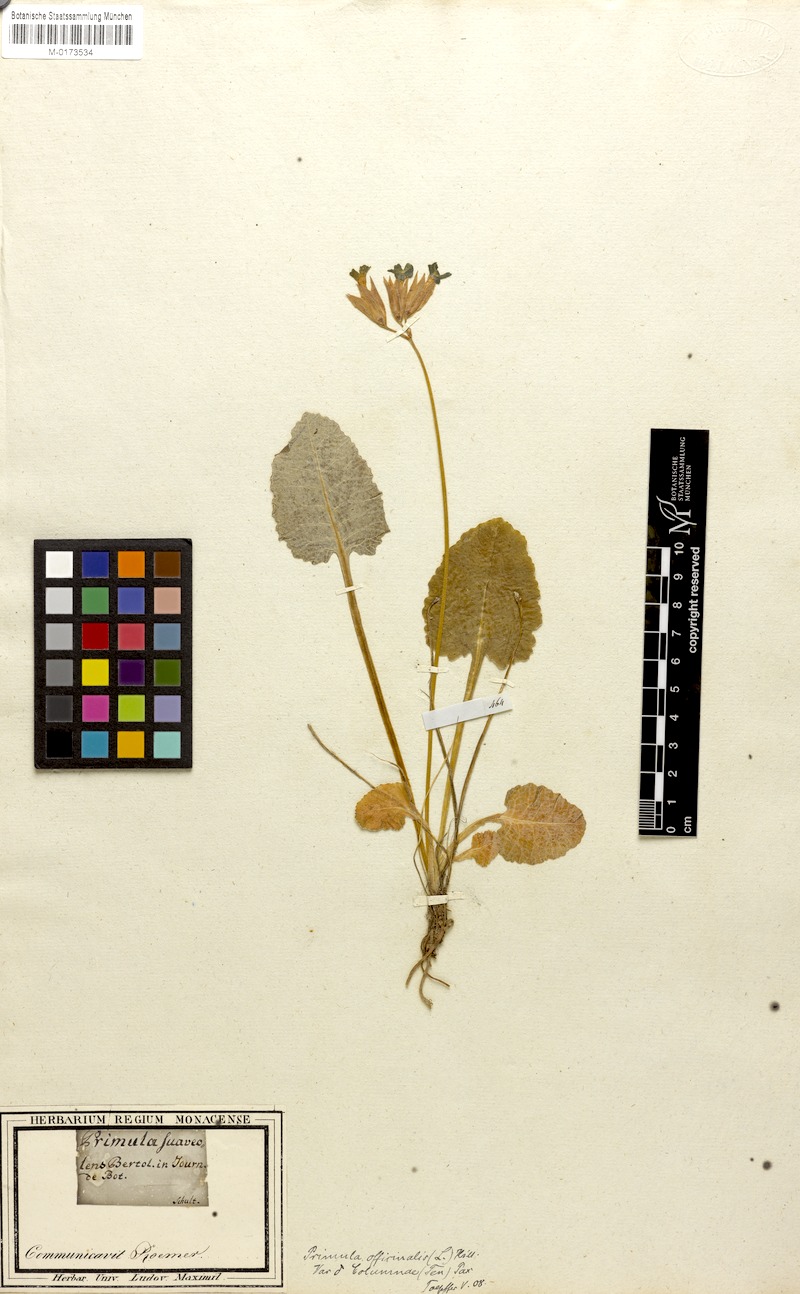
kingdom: Plantae
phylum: Tracheophyta
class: Magnoliopsida
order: Ericales
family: Primulaceae
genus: Primula
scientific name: Primula veris
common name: Cowslip
